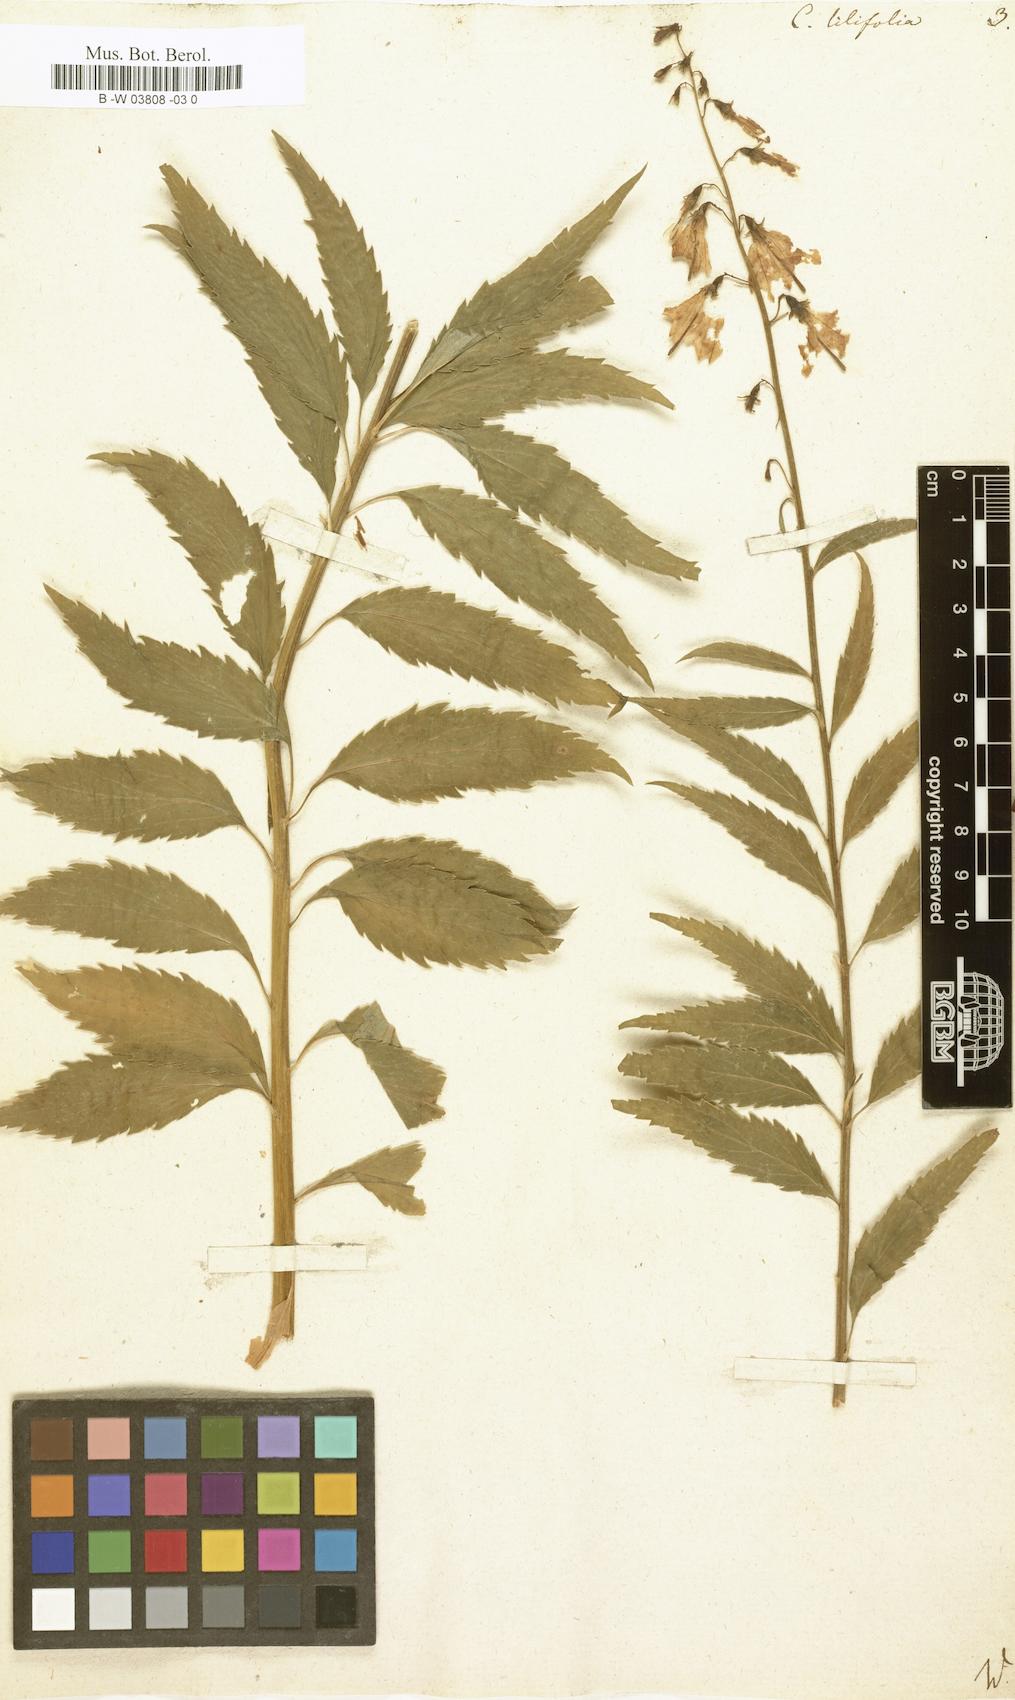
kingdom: Plantae
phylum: Tracheophyta
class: Magnoliopsida
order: Asterales
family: Campanulaceae
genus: Campanula
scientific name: Campanula lilifolia
